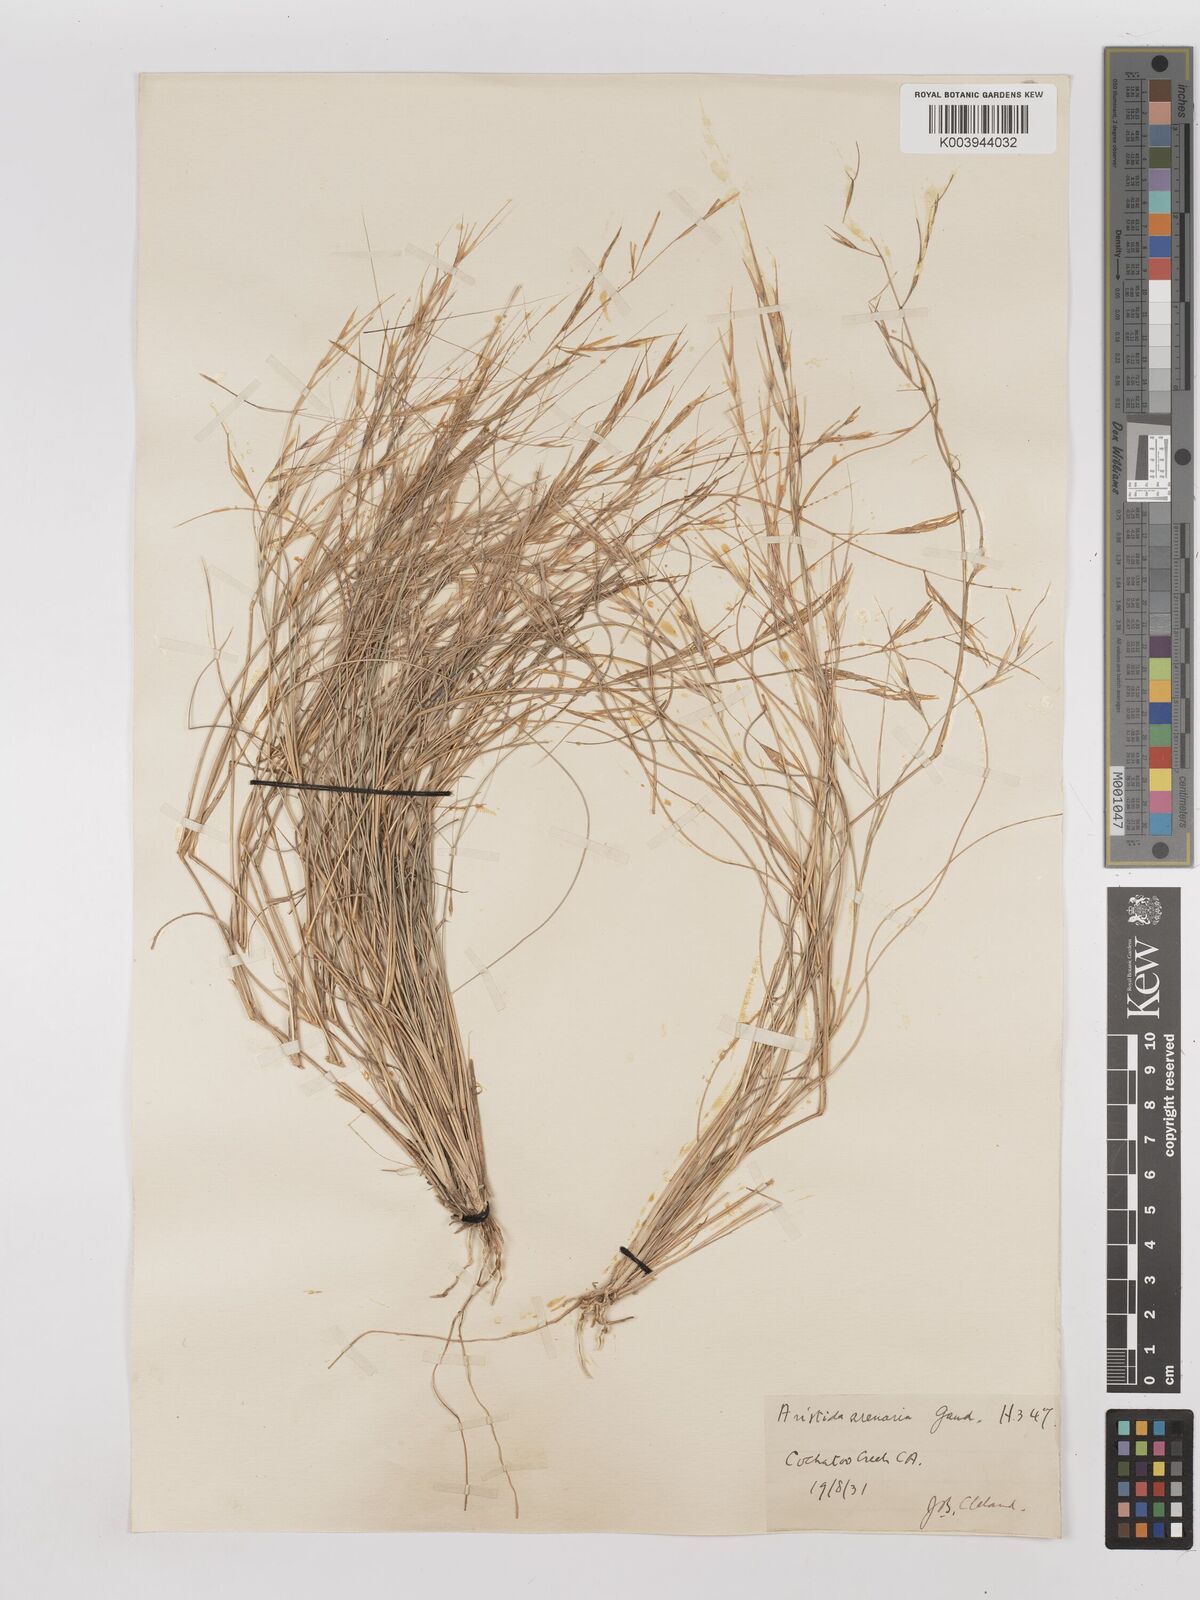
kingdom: Plantae
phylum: Tracheophyta
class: Liliopsida
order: Poales
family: Poaceae
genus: Aristida
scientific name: Aristida contorta
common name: Bunch kerosene grass
